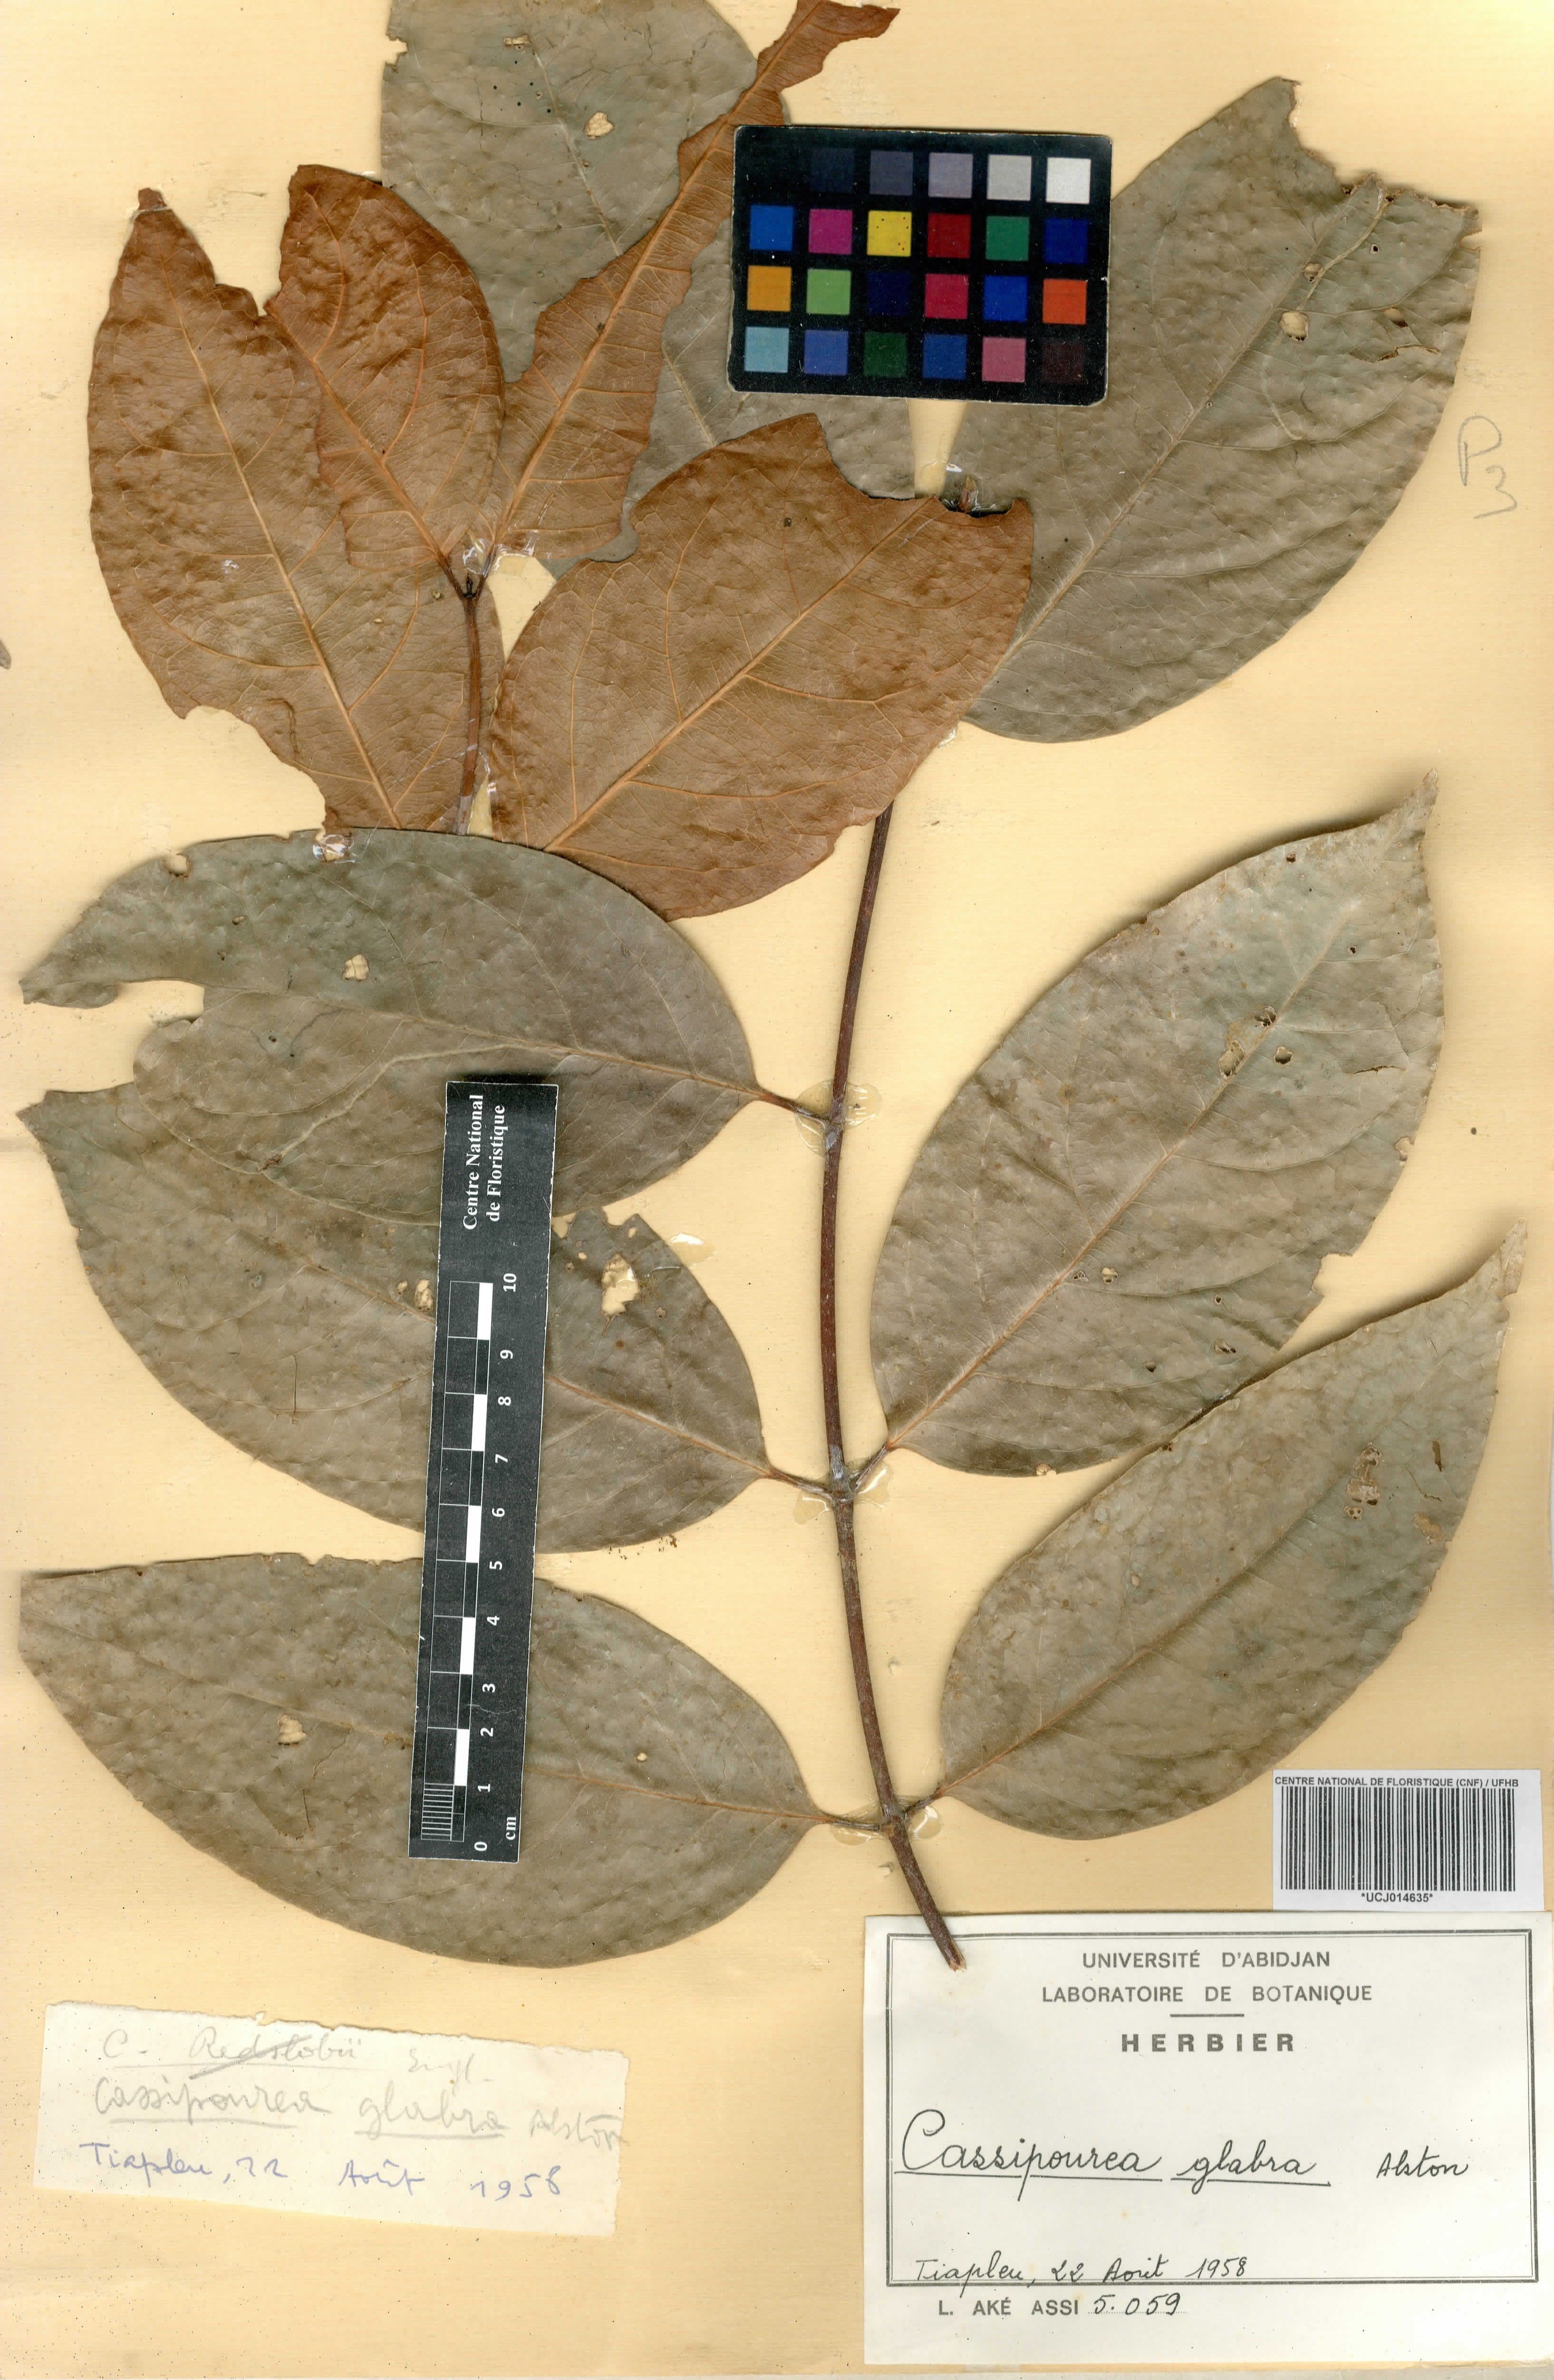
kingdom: Plantae
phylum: Tracheophyta
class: Magnoliopsida
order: Malpighiales
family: Rhizophoraceae
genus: Cassipourea
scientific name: Cassipourea gummiflua
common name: Large-leaved onionwood
